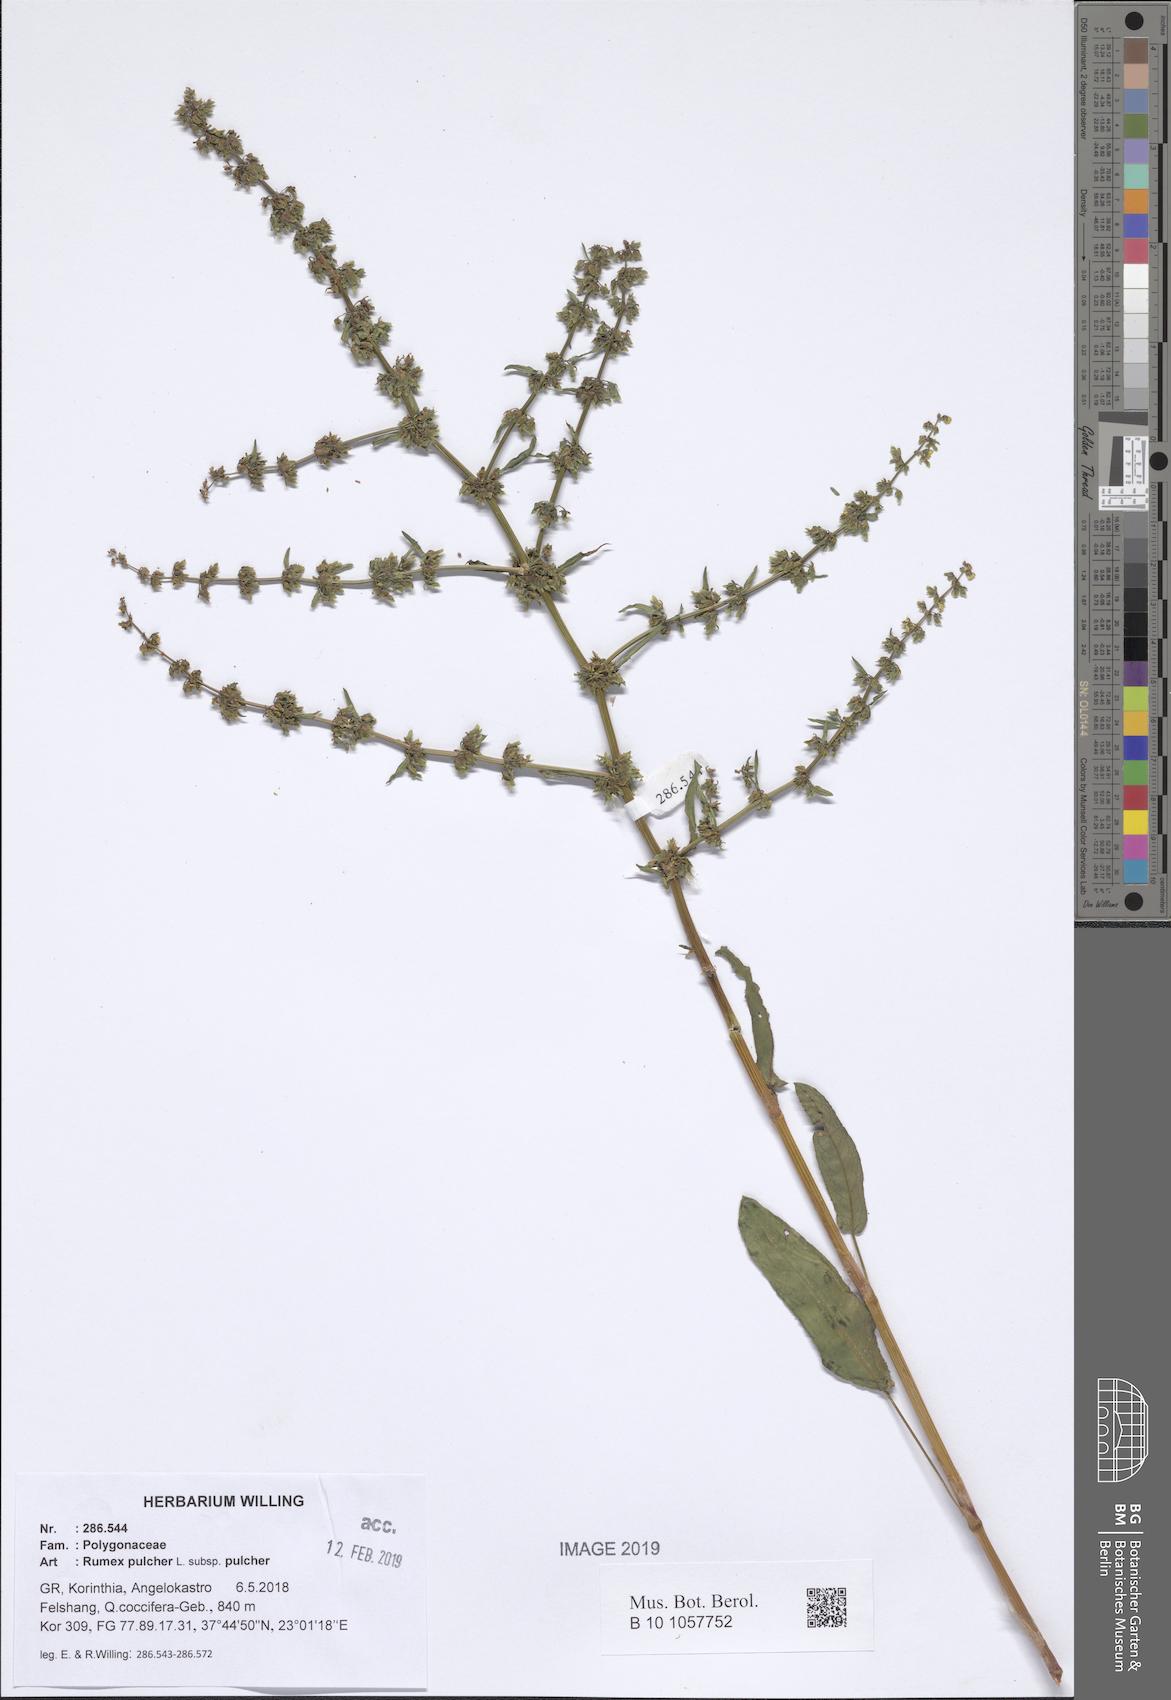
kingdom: Plantae
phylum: Tracheophyta
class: Magnoliopsida
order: Caryophyllales
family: Polygonaceae
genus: Rumex
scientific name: Rumex pulcher
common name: Fiddle dock
